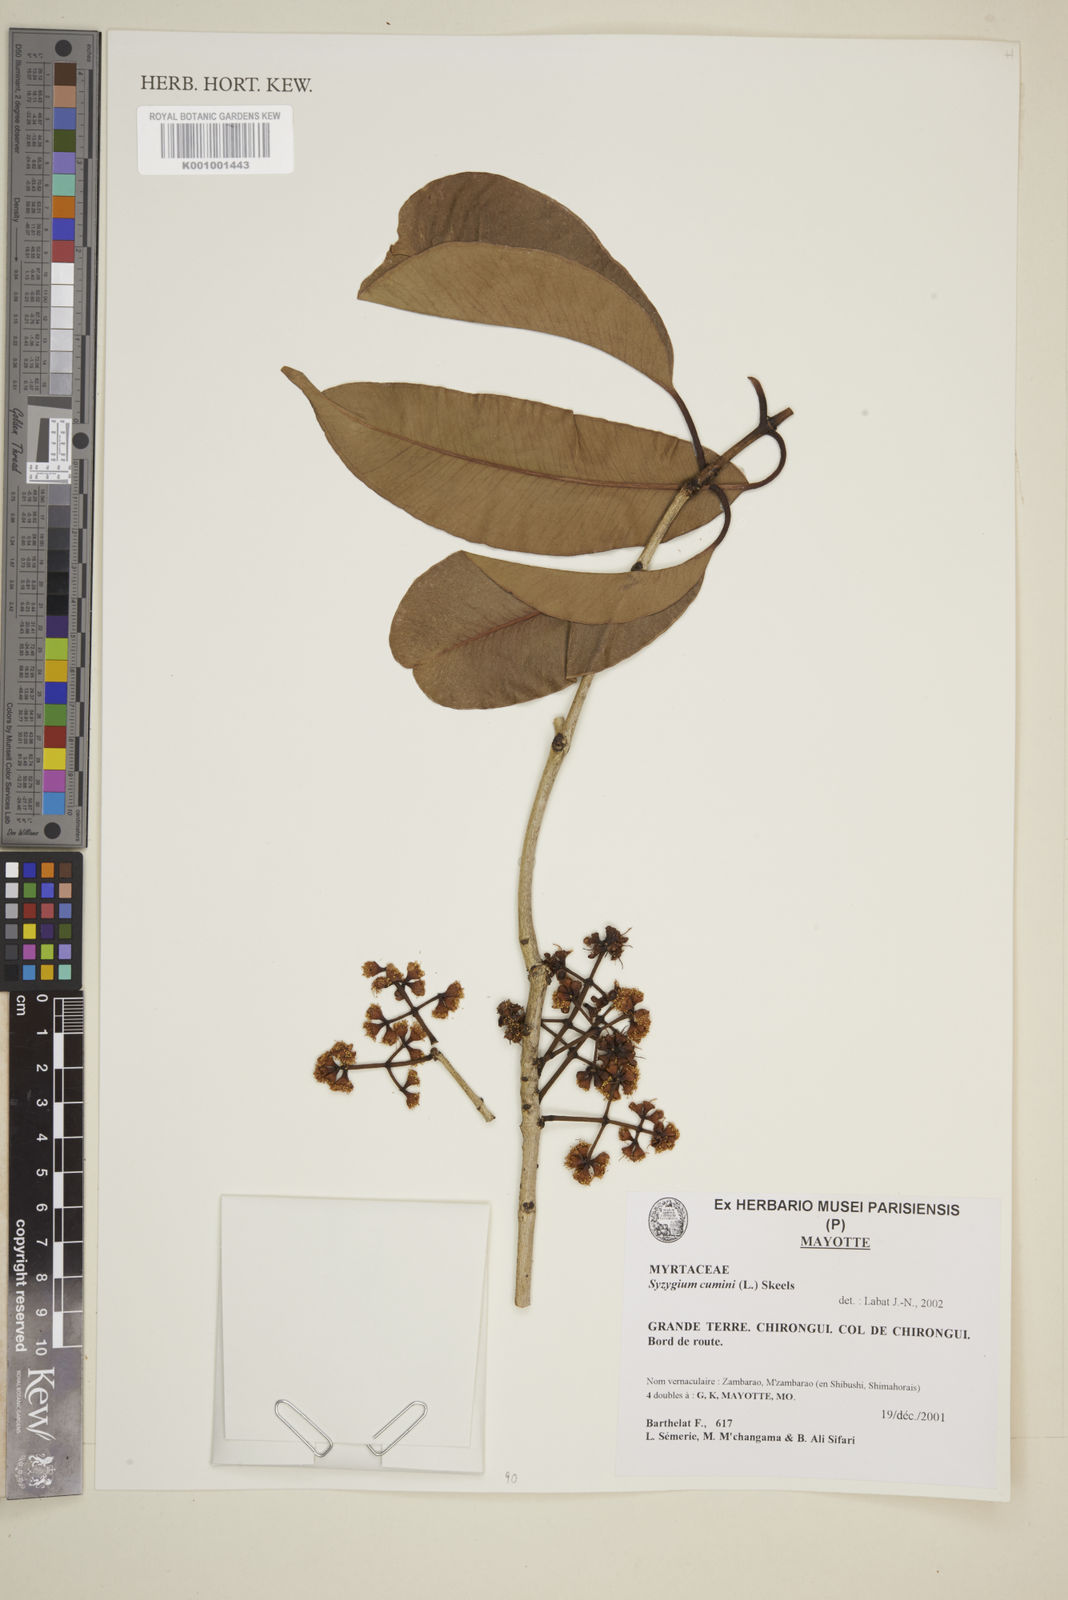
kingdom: Plantae
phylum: Tracheophyta
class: Magnoliopsida
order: Myrtales
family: Myrtaceae
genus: Syzygium
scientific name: Syzygium cumini
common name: Java plum
